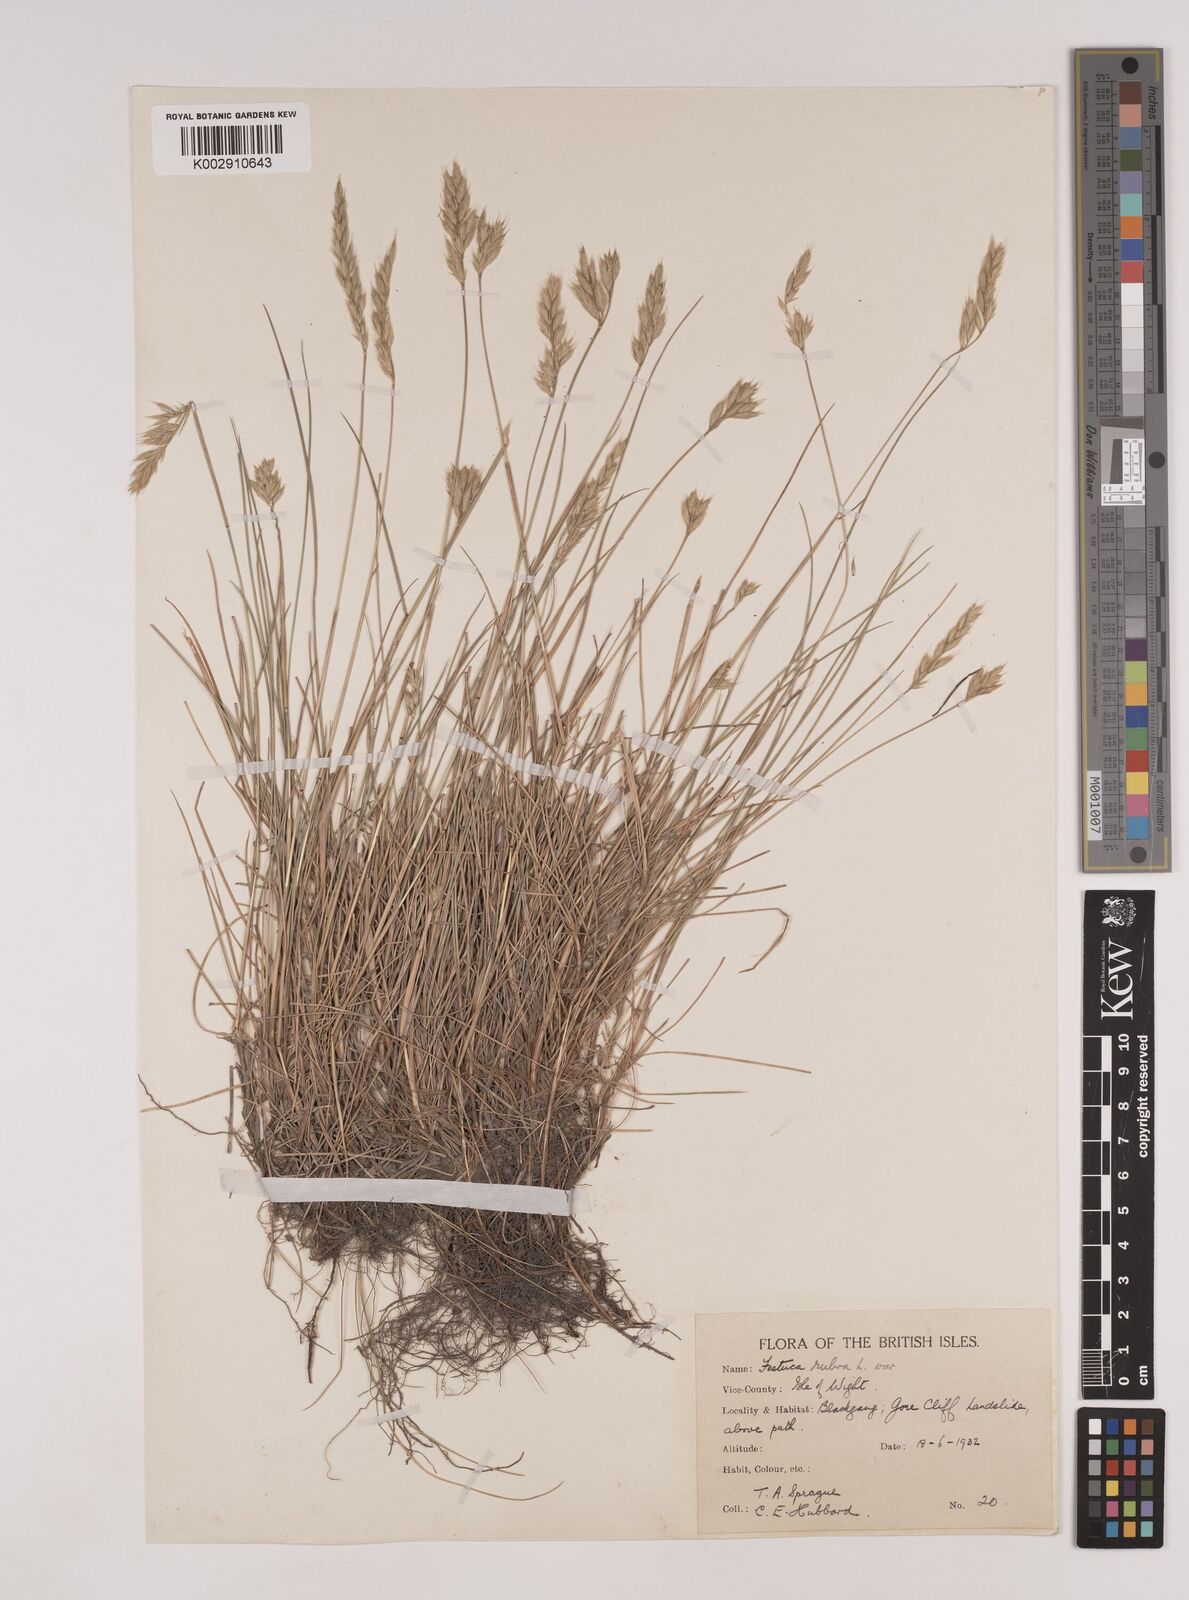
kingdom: Plantae
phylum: Tracheophyta
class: Liliopsida
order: Poales
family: Poaceae
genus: Festuca
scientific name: Festuca rubra
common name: Red fescue
